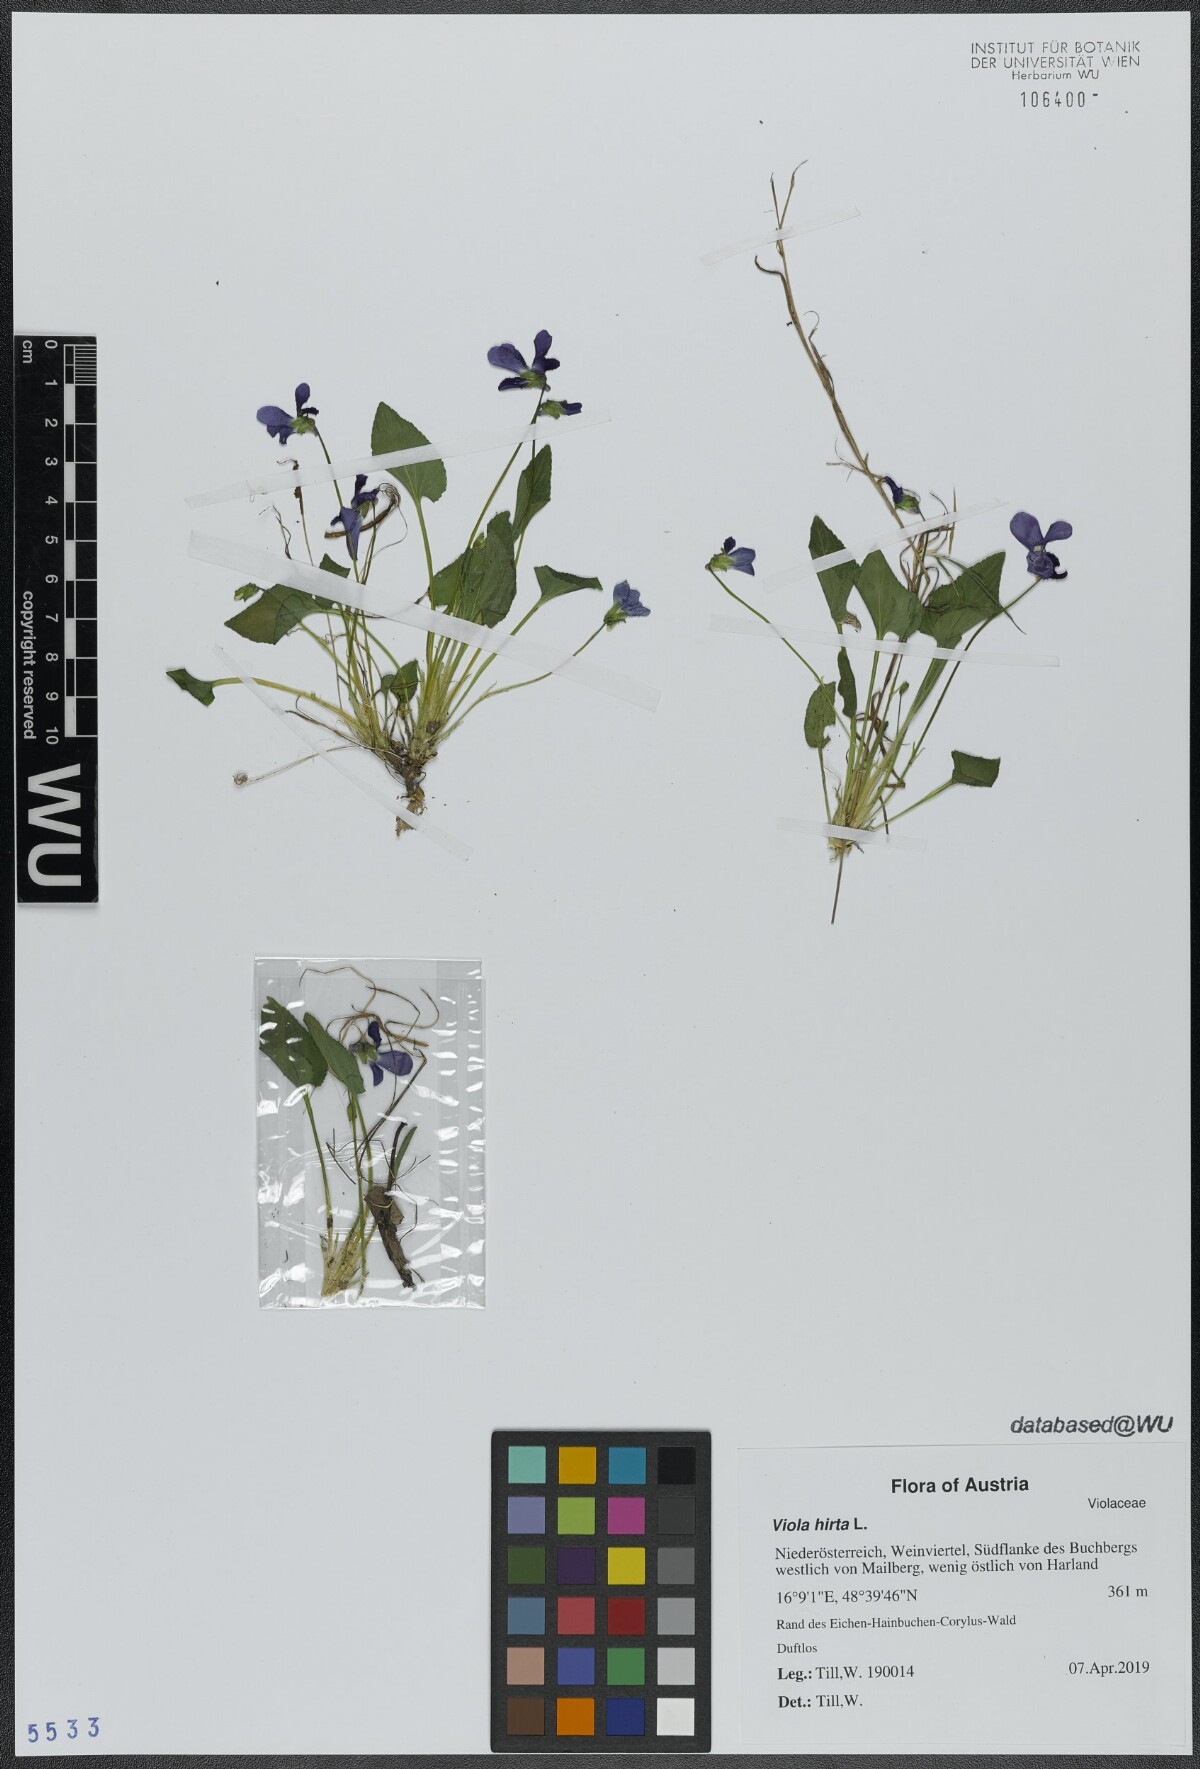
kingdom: Plantae
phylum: Tracheophyta
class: Magnoliopsida
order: Malpighiales
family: Violaceae
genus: Viola
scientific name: Viola hirta
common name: Hairy violet
